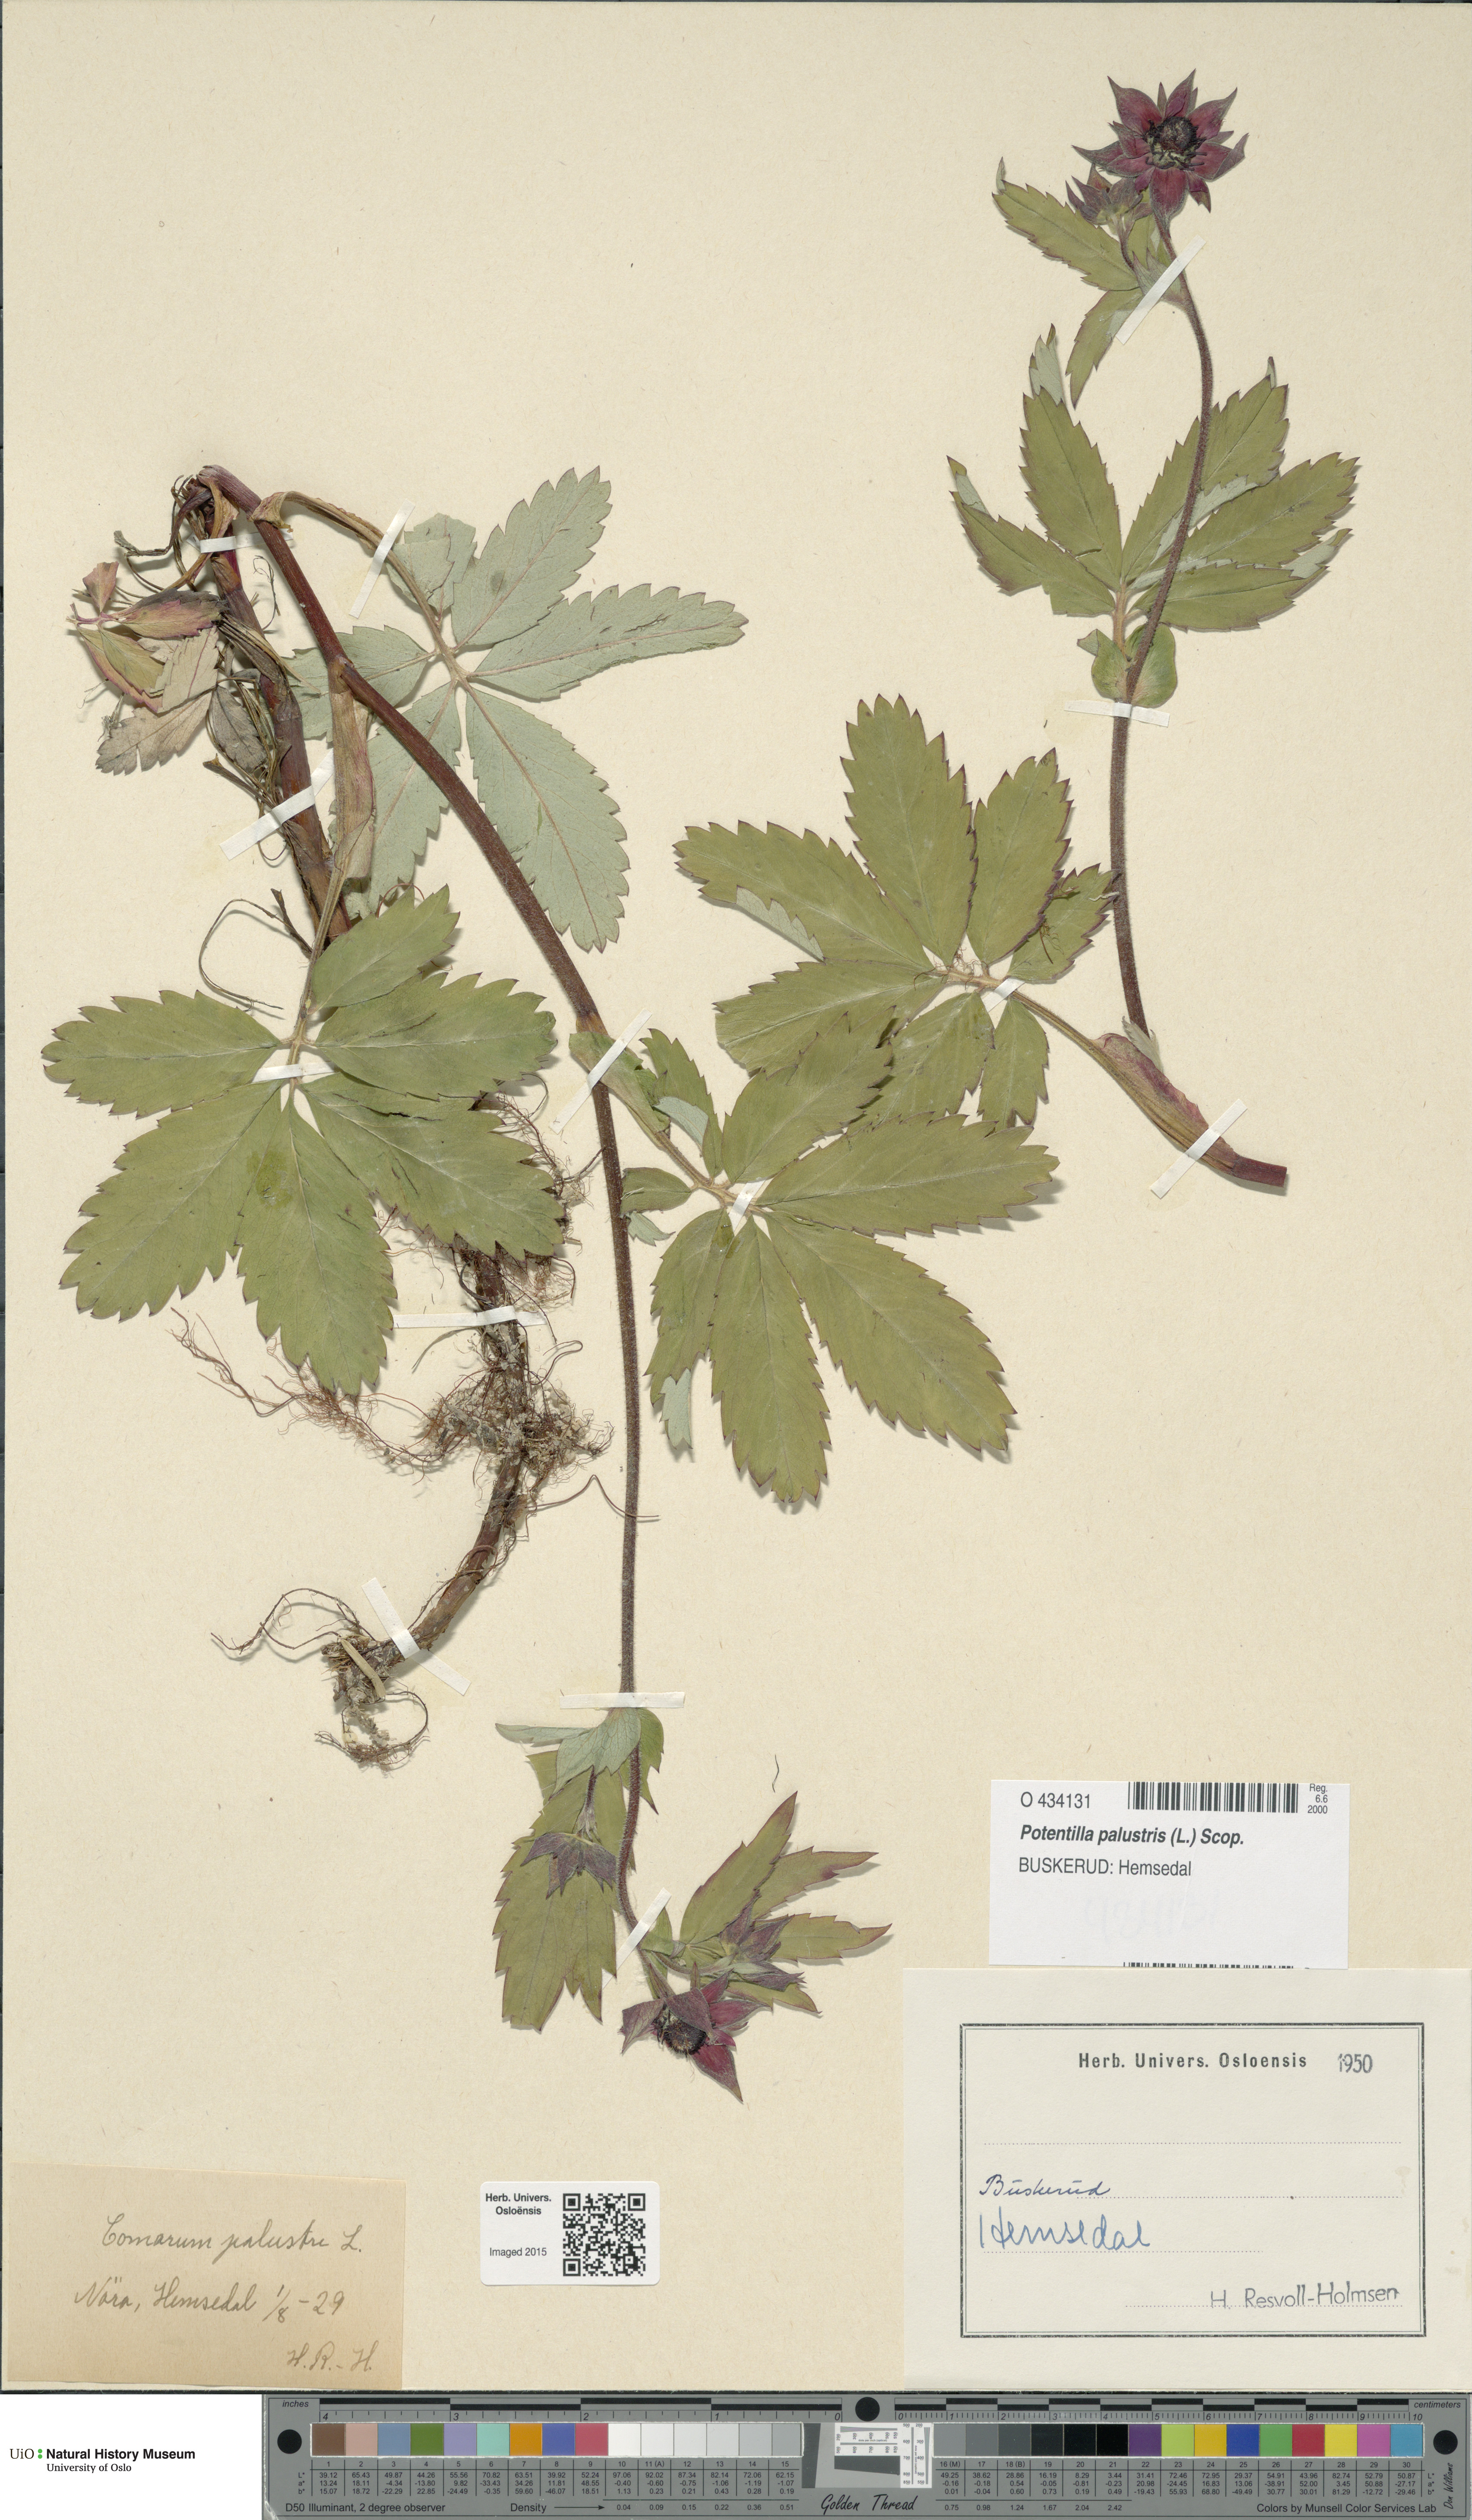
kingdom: Plantae
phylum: Tracheophyta
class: Magnoliopsida
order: Rosales
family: Rosaceae
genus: Comarum
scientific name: Comarum palustre
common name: Marsh cinquefoil
